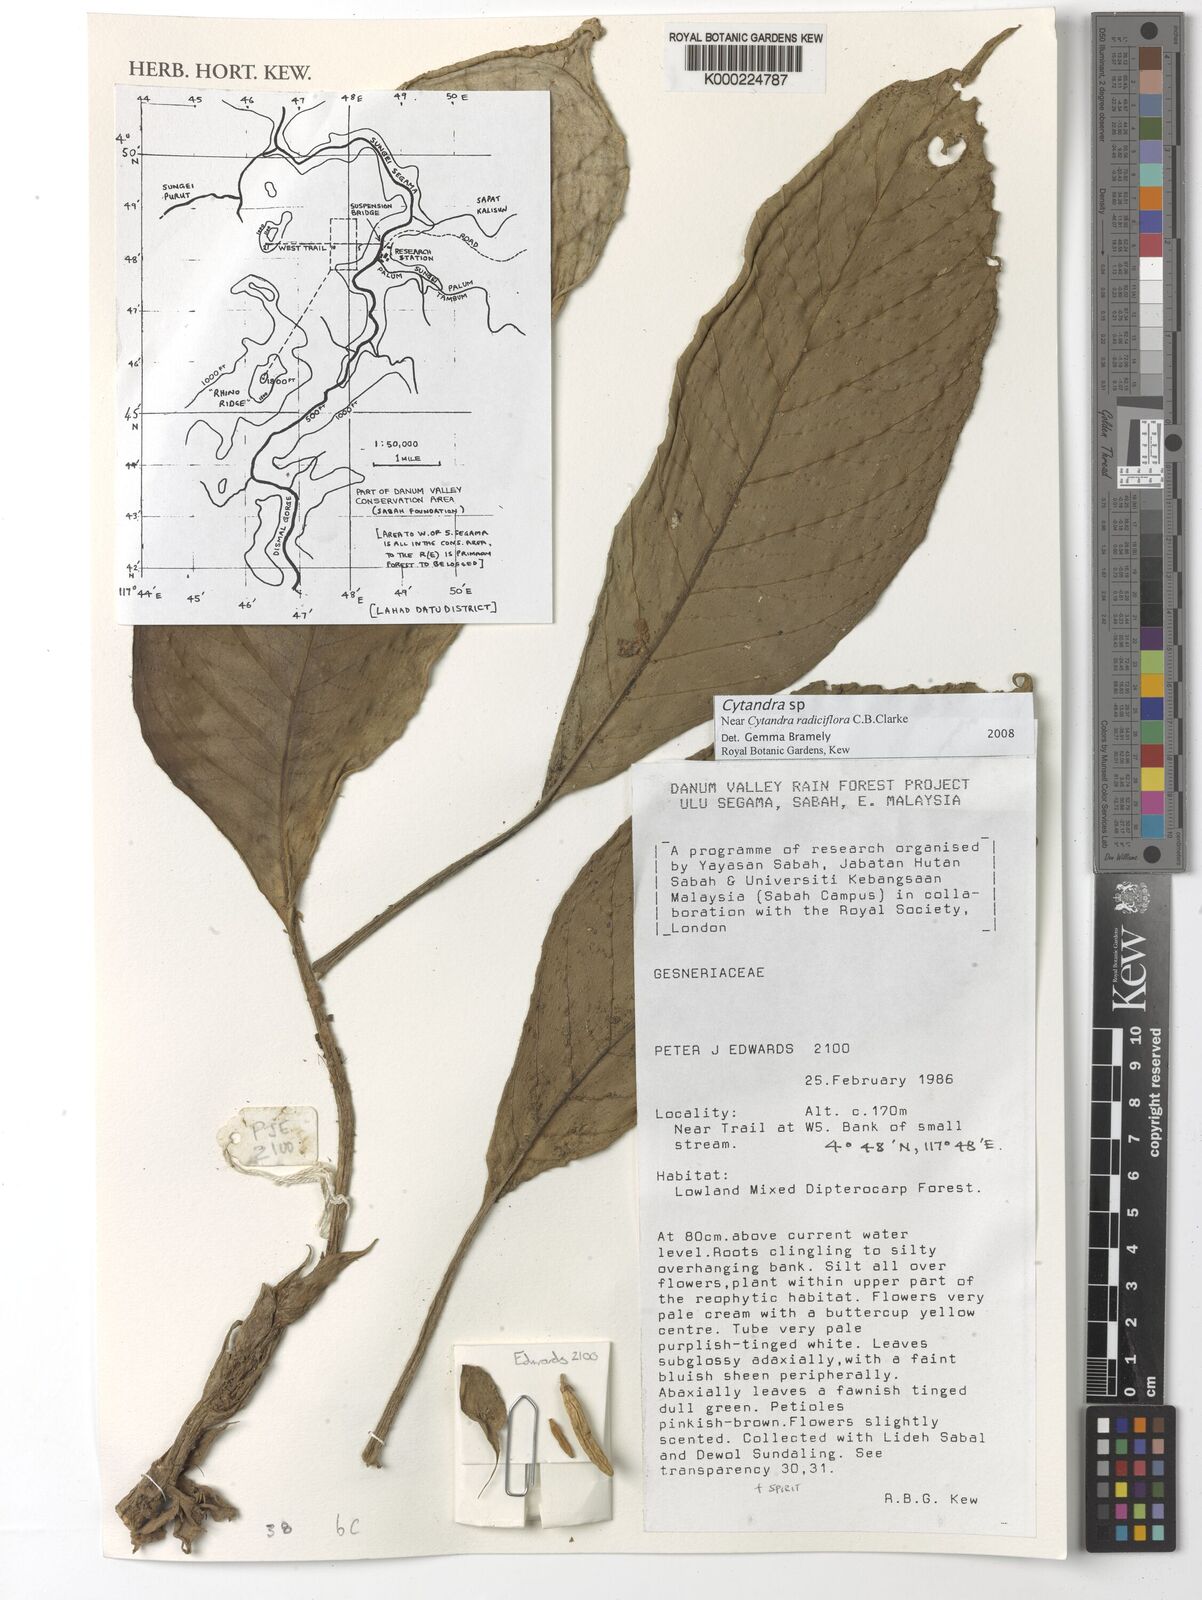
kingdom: Plantae
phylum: Tracheophyta
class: Magnoliopsida
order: Lamiales
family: Gesneriaceae
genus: Cyrtandra
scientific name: Cyrtandra
